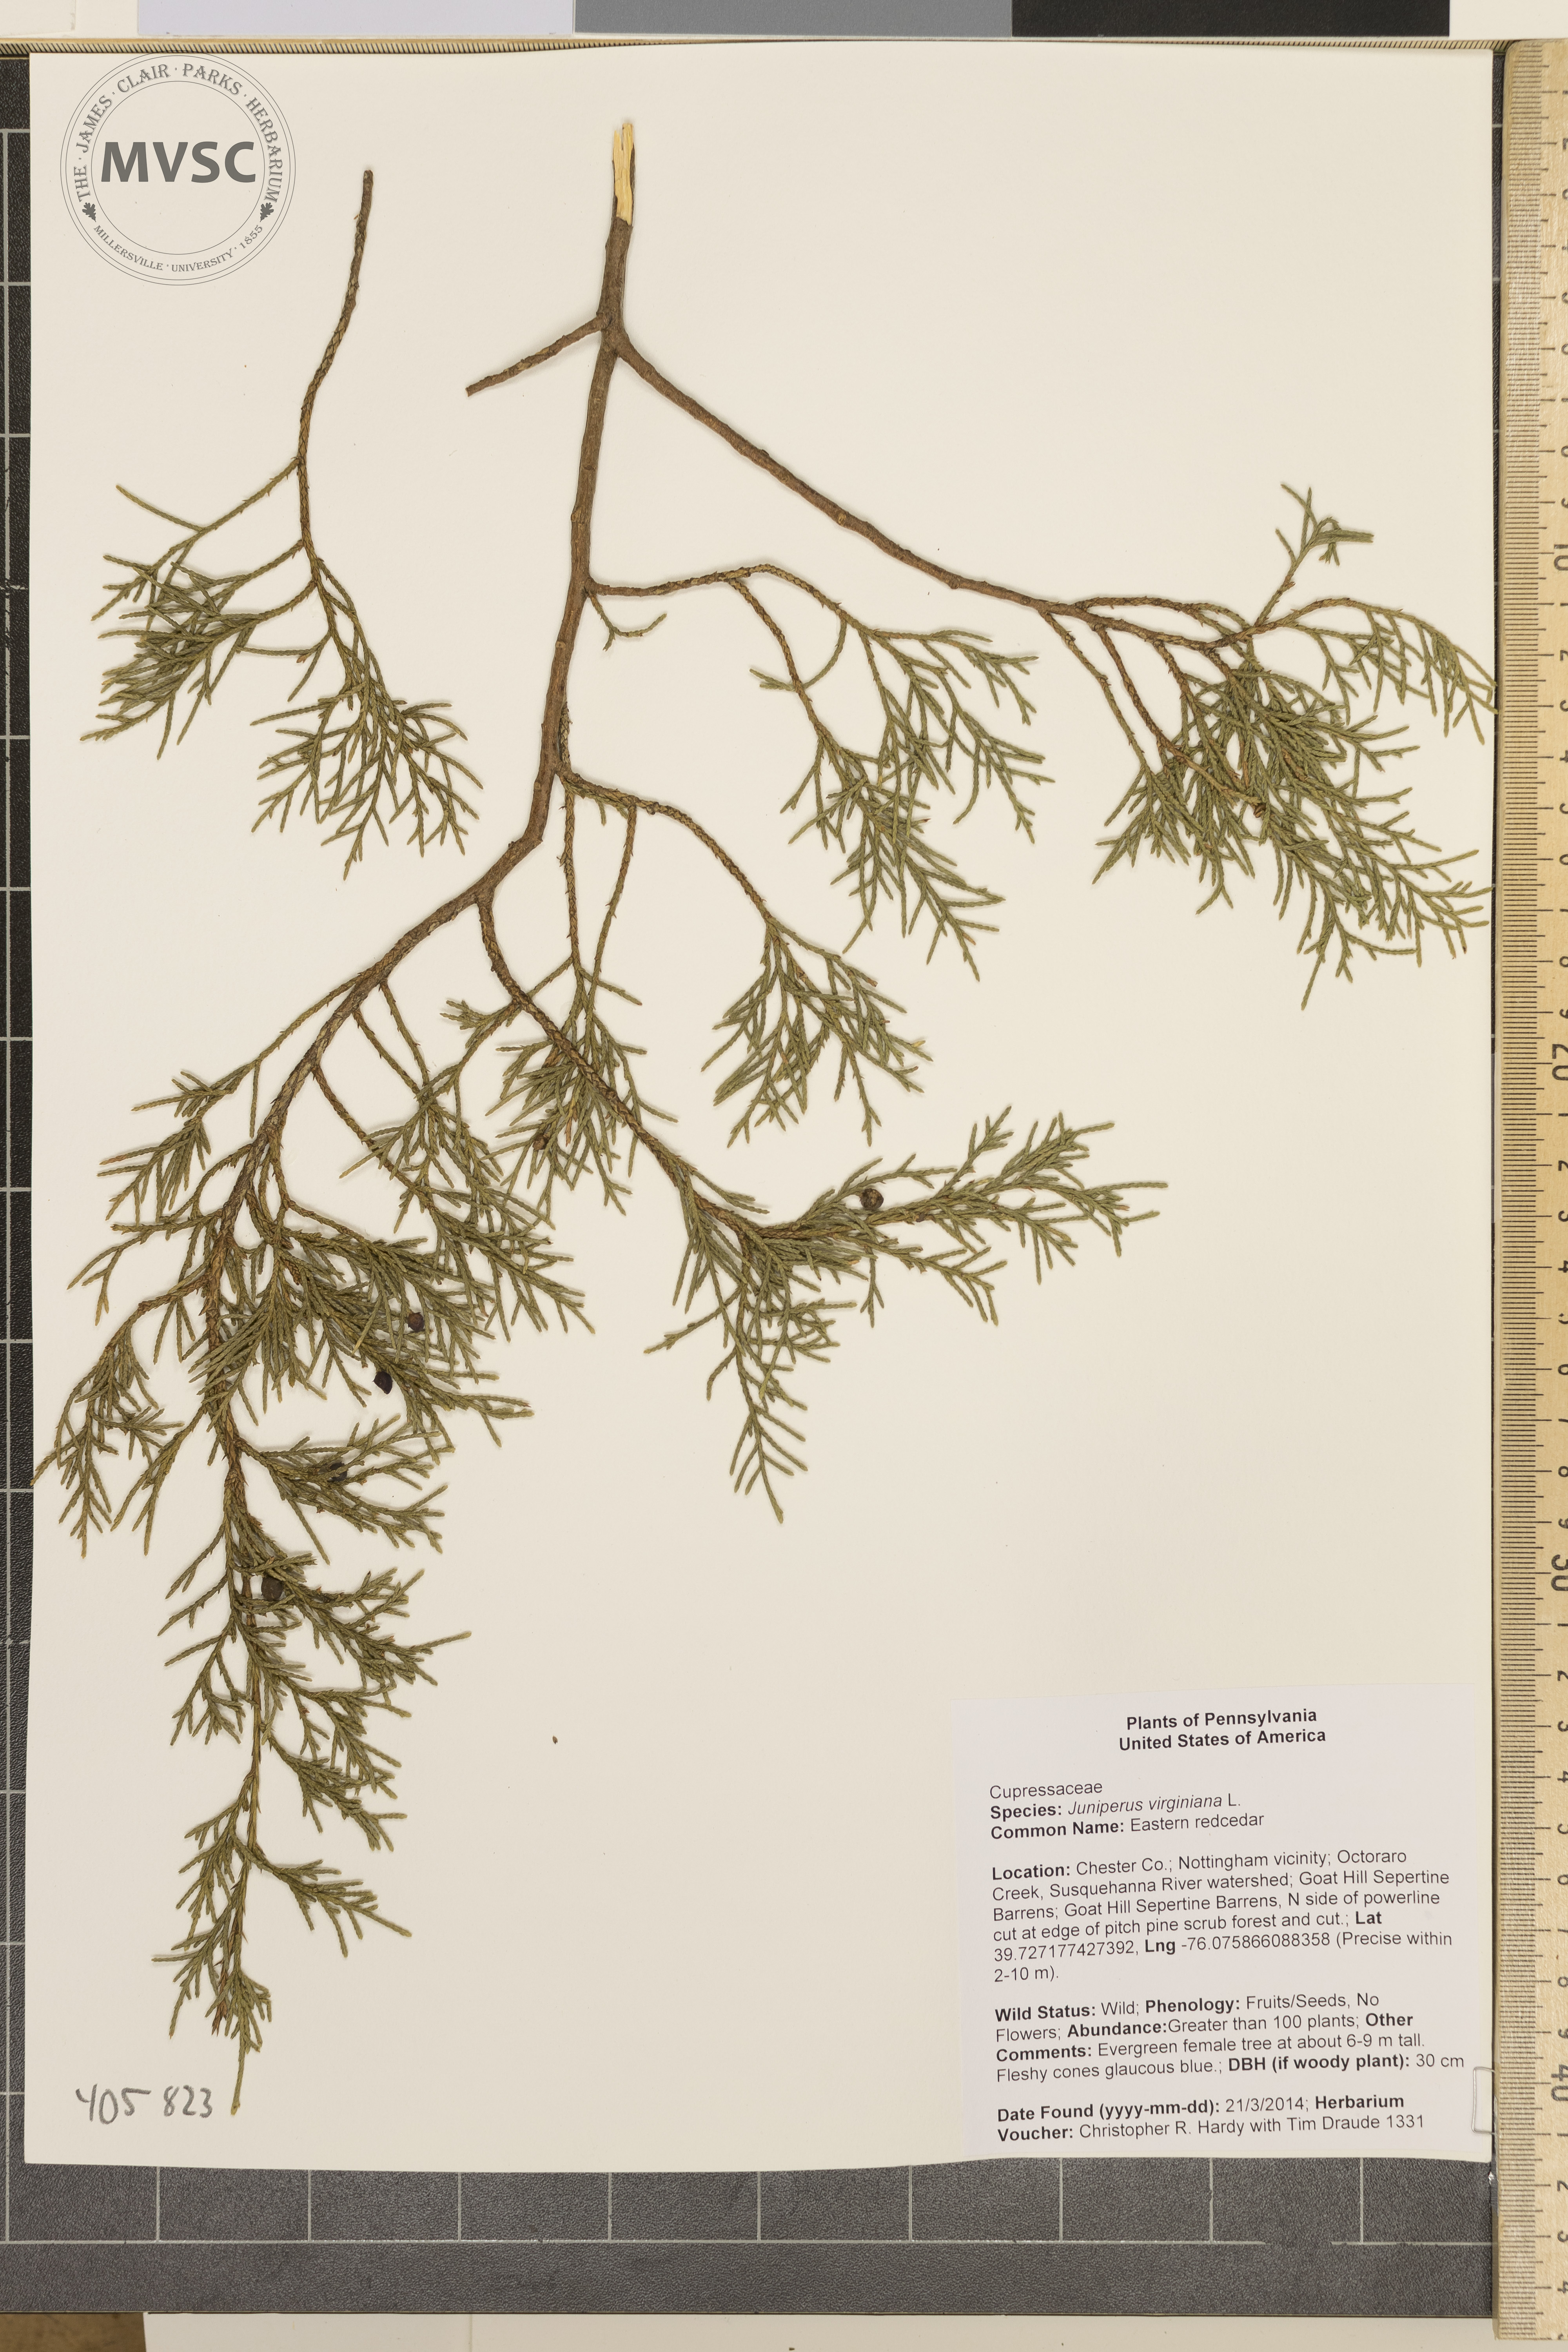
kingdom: Plantae
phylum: Tracheophyta
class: Pinopsida
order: Pinales
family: Cupressaceae
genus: Juniperus
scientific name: Juniperus virginiana
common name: Eastern redcedar
